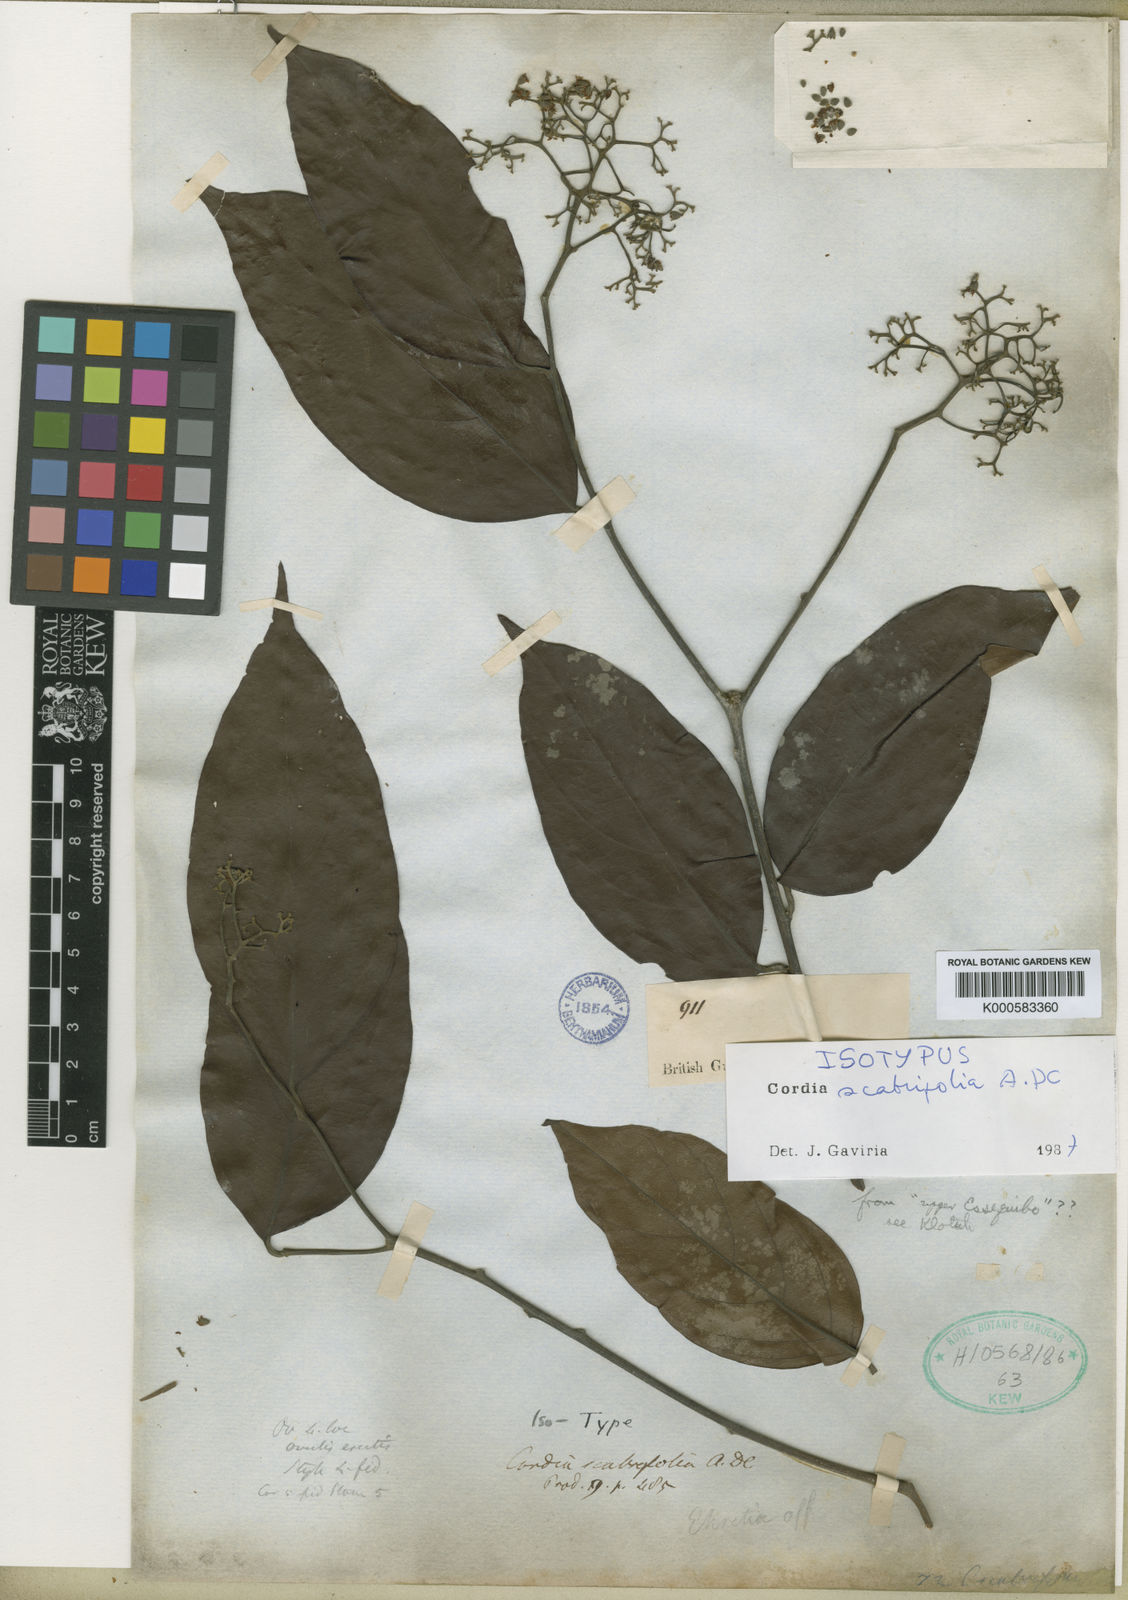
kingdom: Plantae
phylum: Tracheophyta
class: Magnoliopsida
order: Boraginales
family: Cordiaceae
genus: Cordia
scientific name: Cordia scabrifolia
